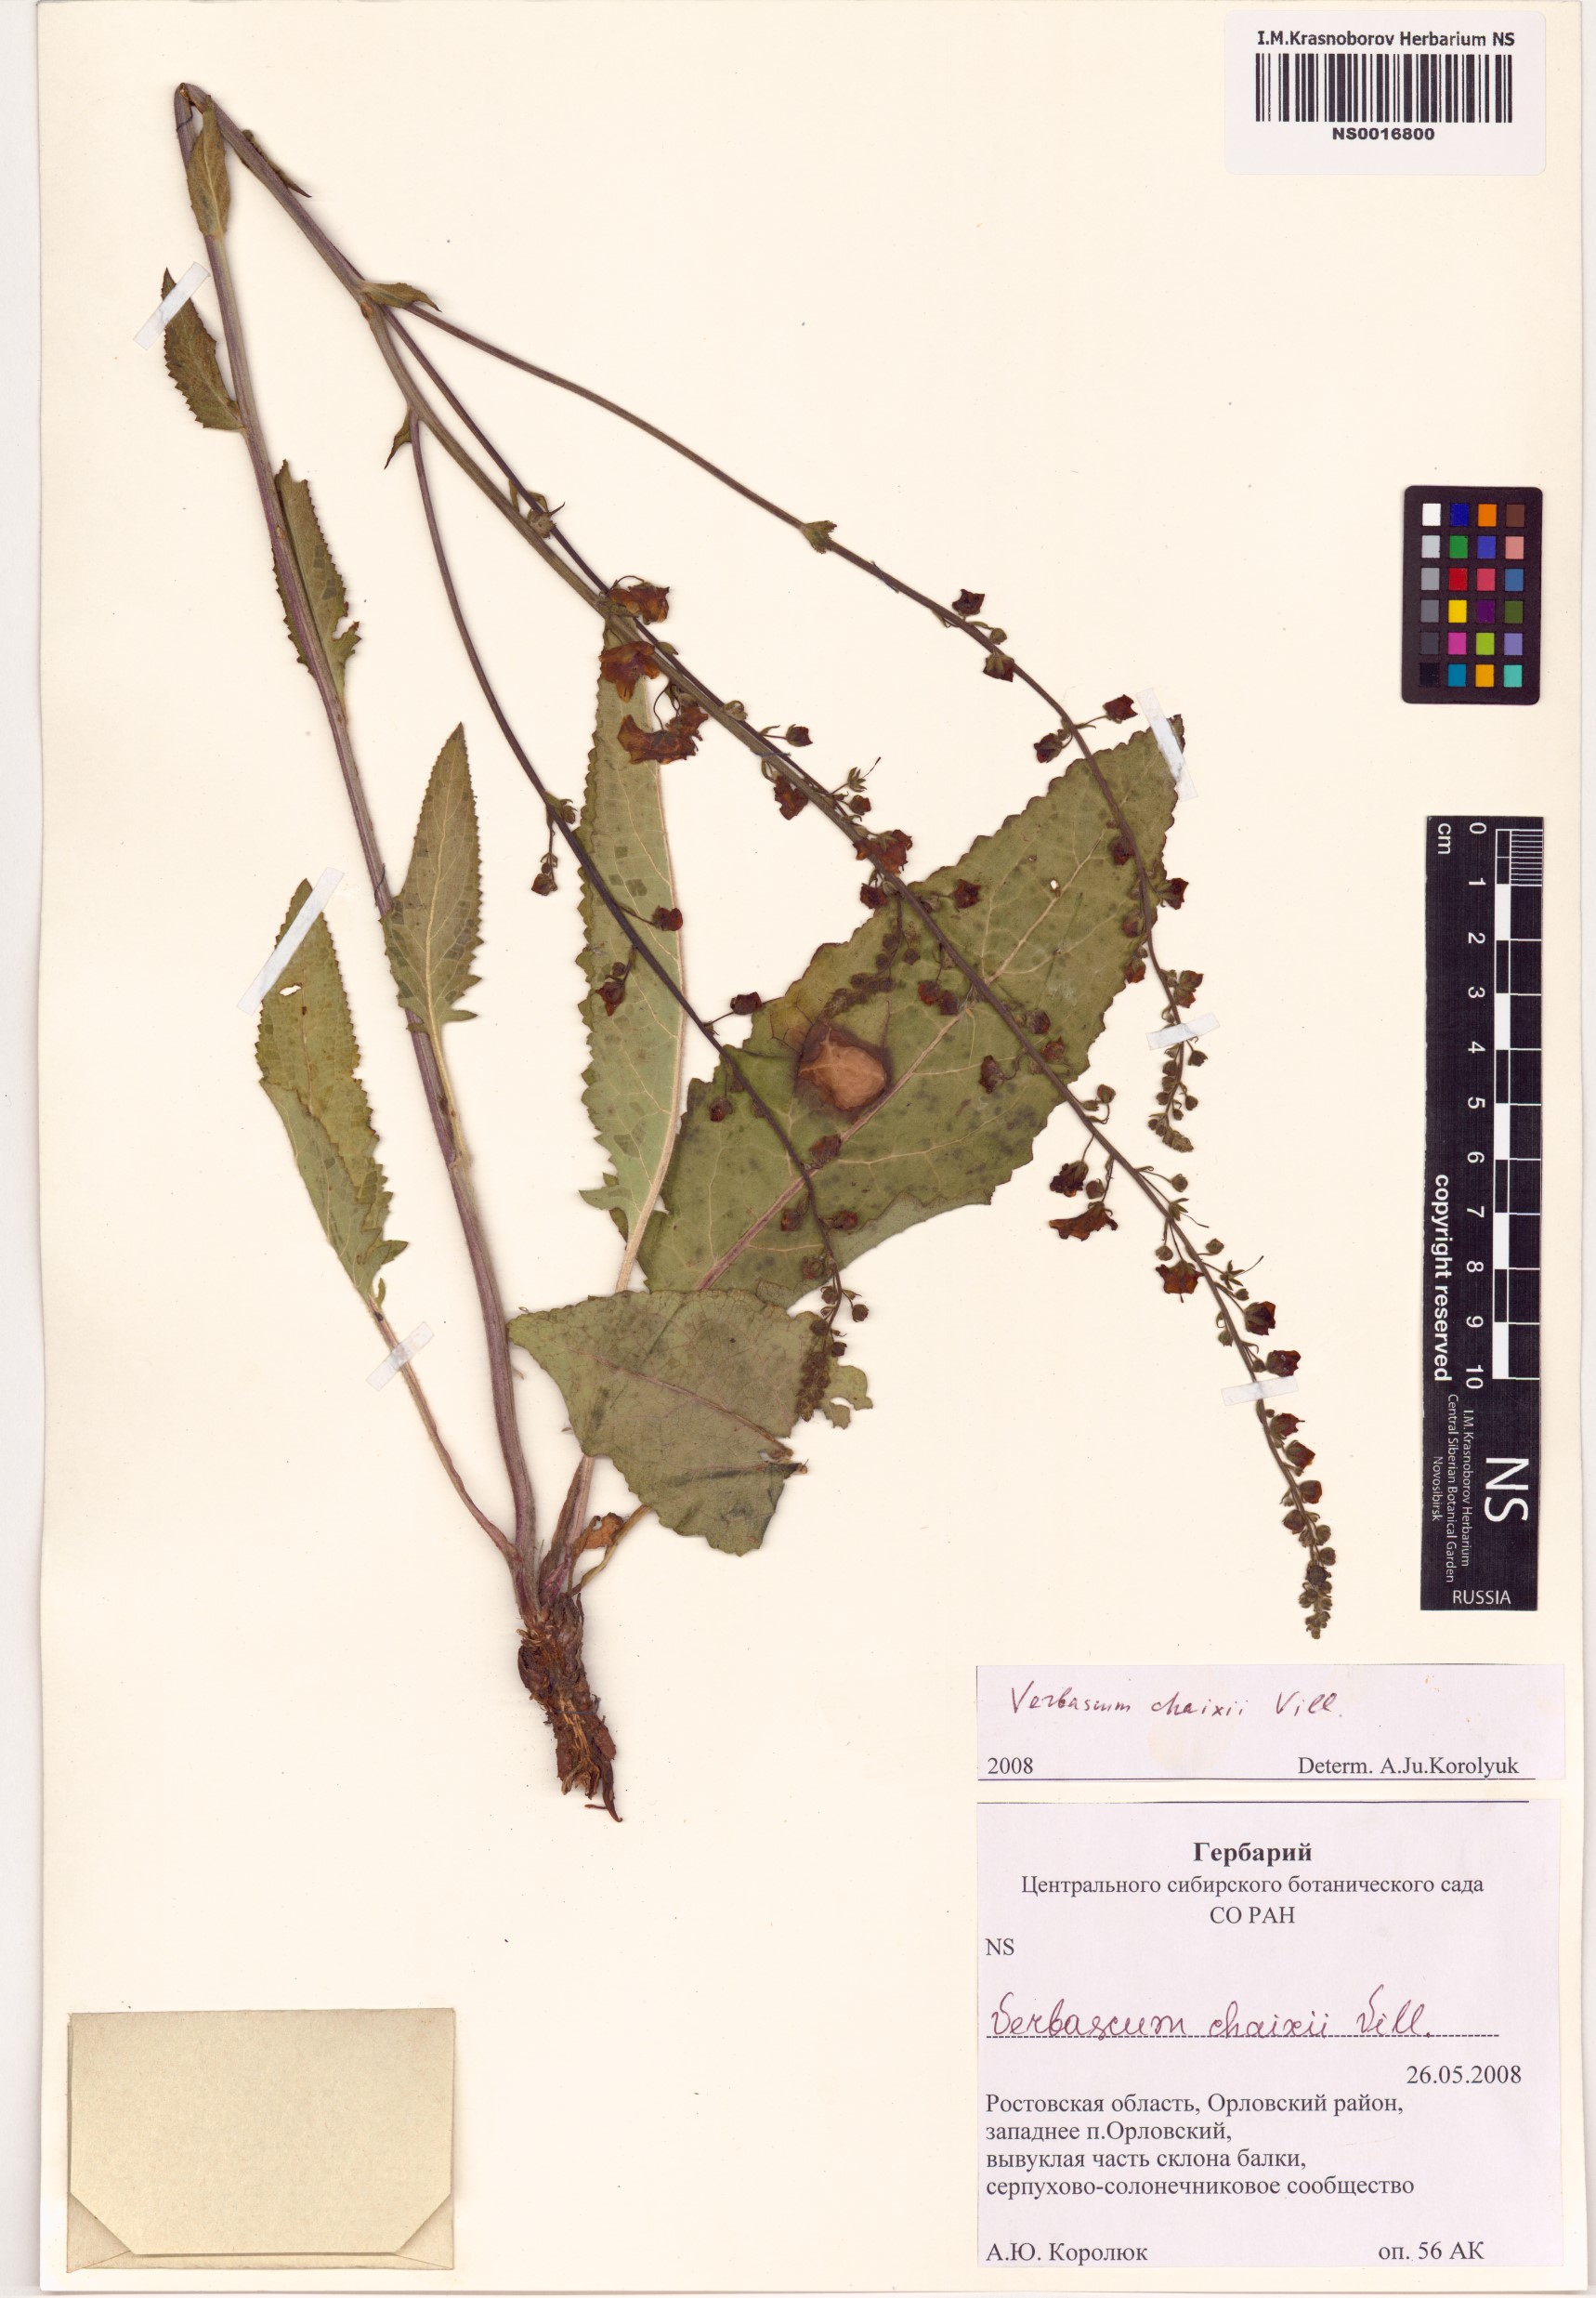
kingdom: Plantae
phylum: Tracheophyta
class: Magnoliopsida
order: Lamiales
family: Scrophulariaceae
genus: Verbascum
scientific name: Verbascum chaixii
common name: Nettle-leaved mullein
